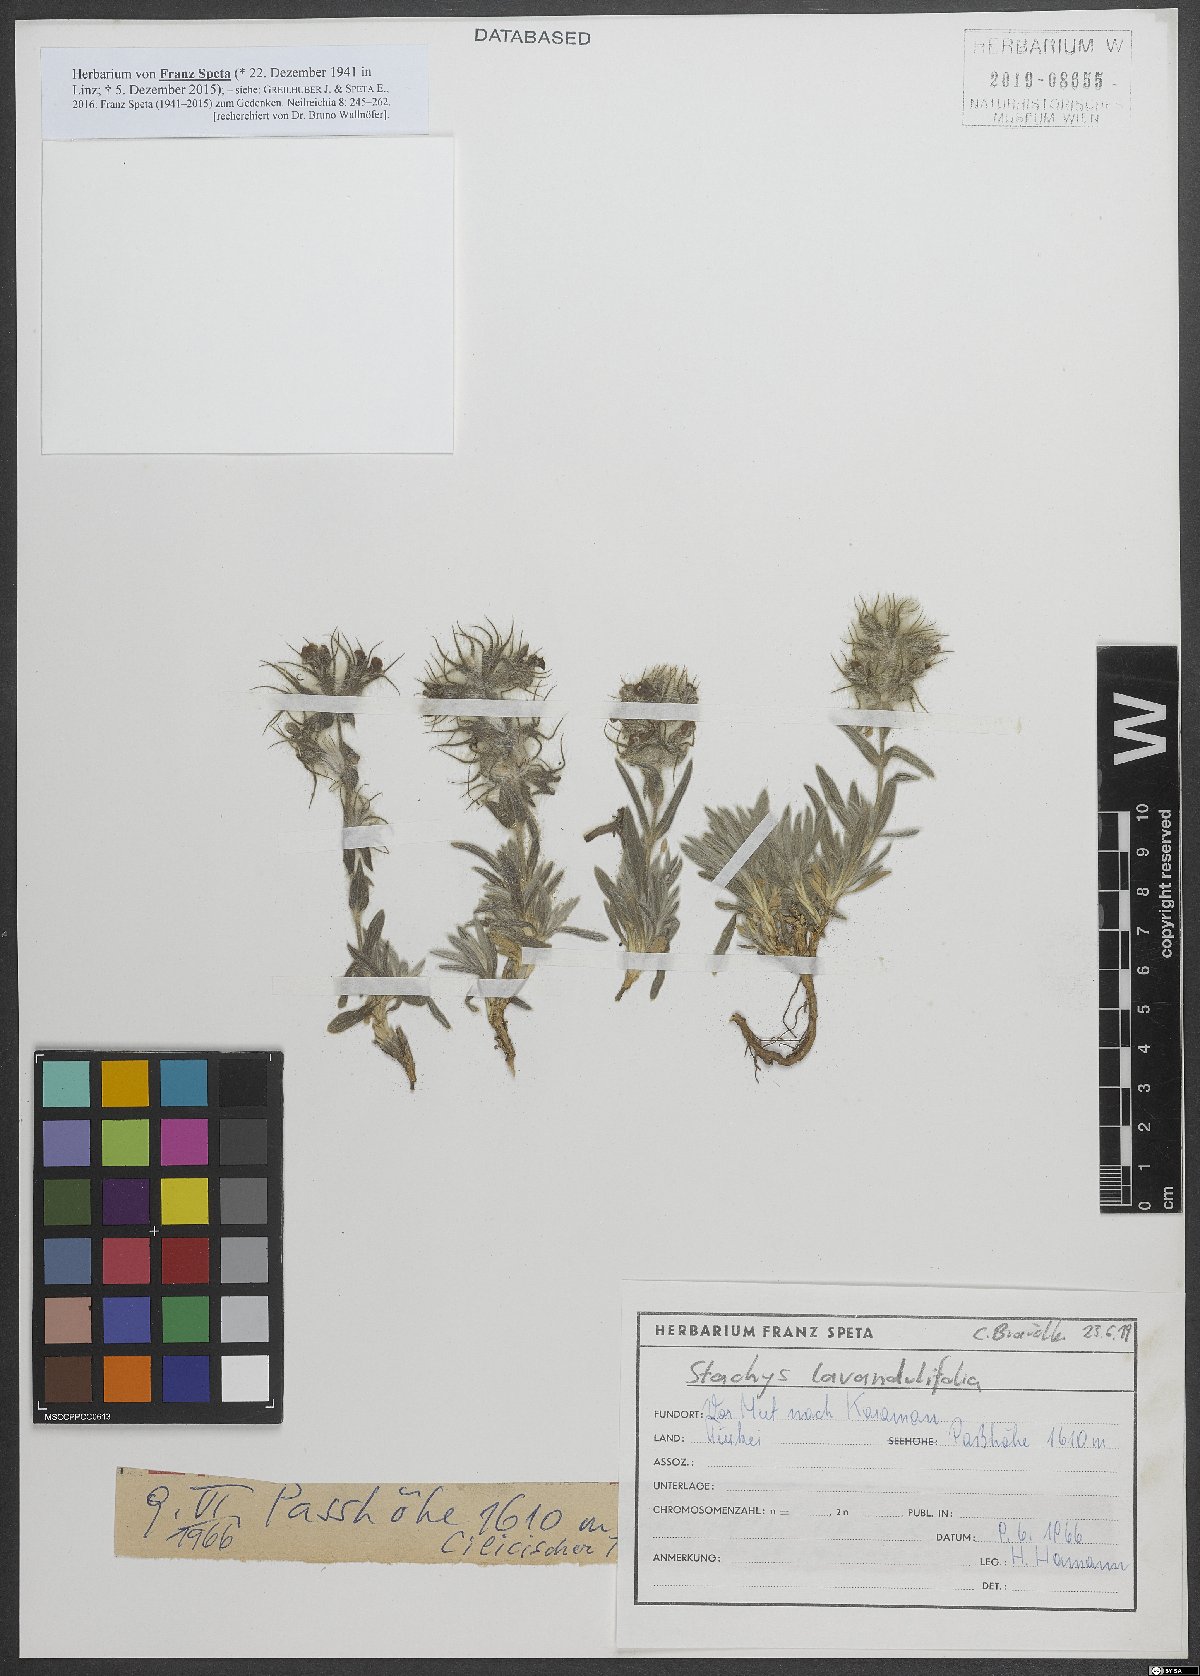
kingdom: Plantae
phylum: Tracheophyta
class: Magnoliopsida
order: Lamiales
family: Lamiaceae
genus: Stachys
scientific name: Stachys lavandulifolia
